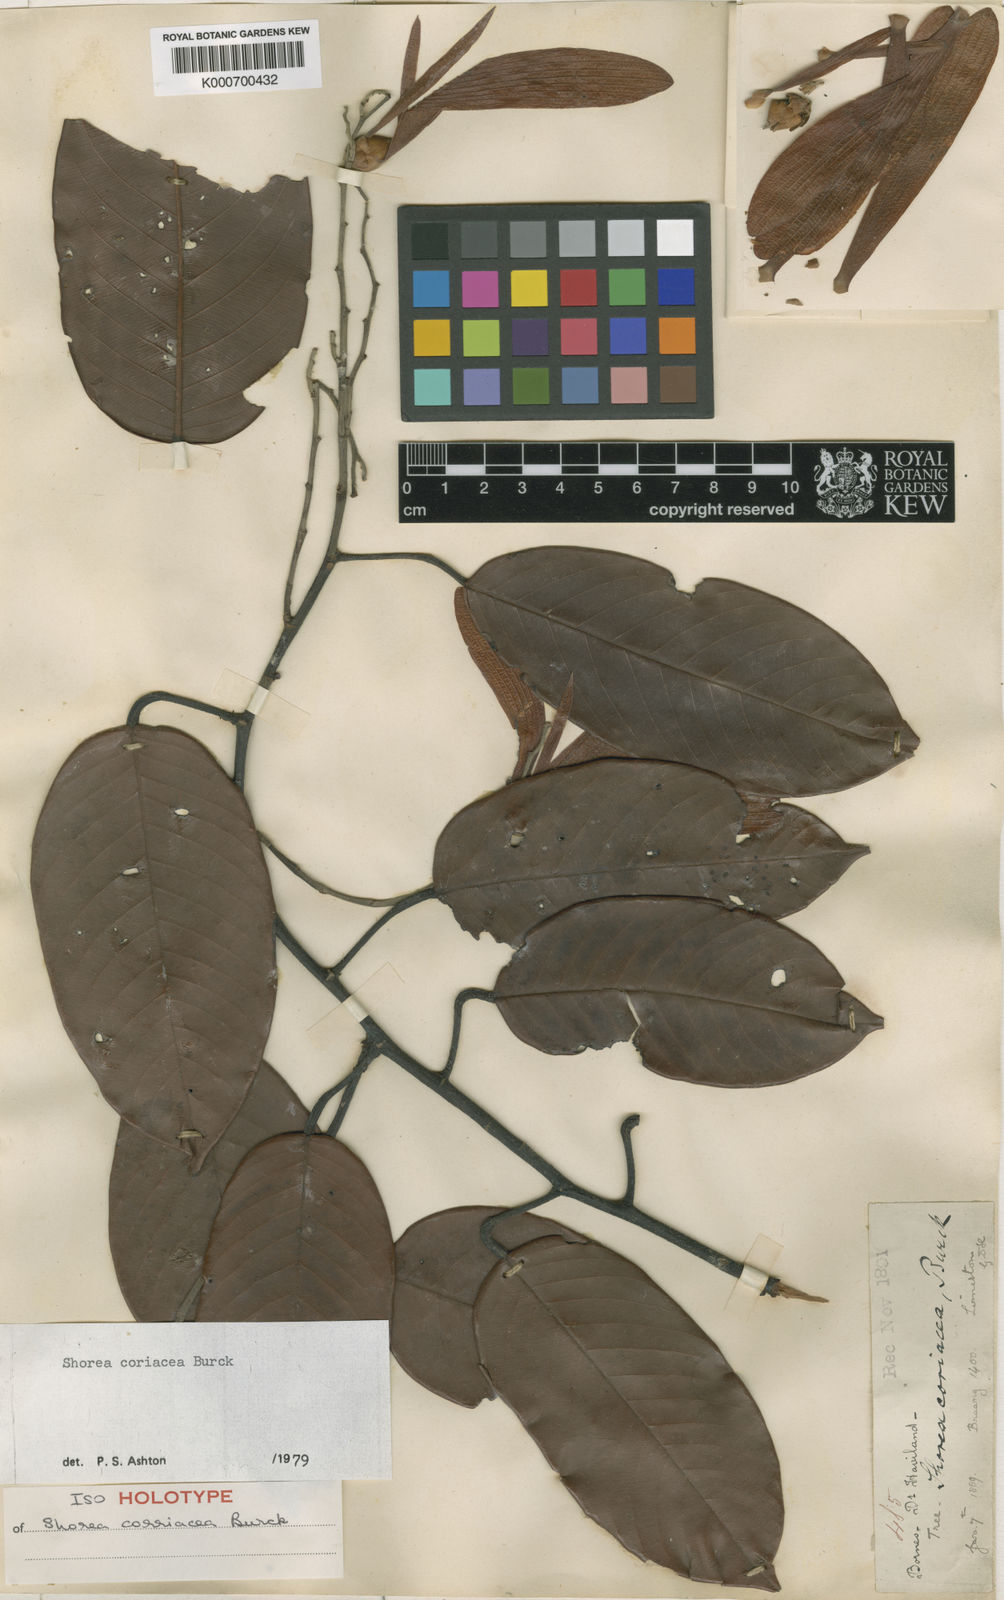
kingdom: Plantae
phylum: Tracheophyta
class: Magnoliopsida
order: Malvales
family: Dipterocarpaceae
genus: Shorea
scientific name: Shorea coriacea
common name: Seraya tangkai panjang
